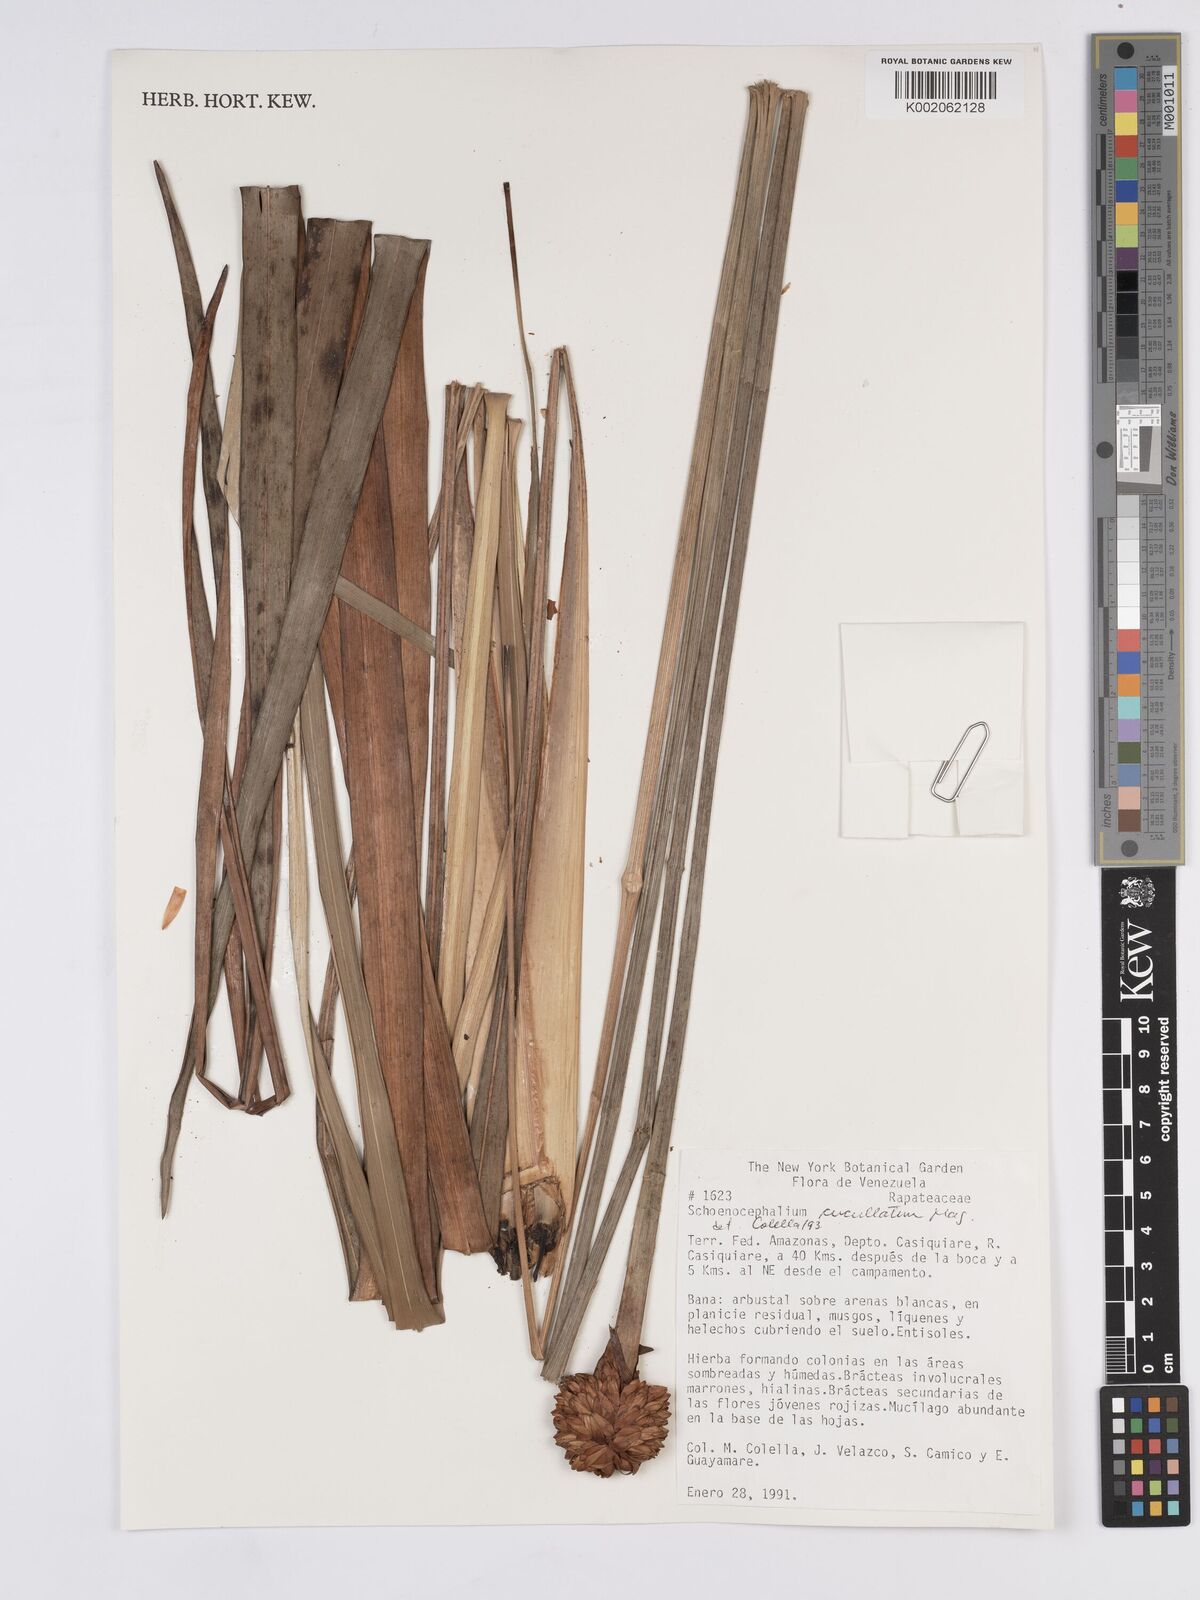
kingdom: Plantae
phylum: Tracheophyta
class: Liliopsida
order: Poales
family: Rapateaceae
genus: Schoenocephalium
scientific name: Schoenocephalium cucullatum
